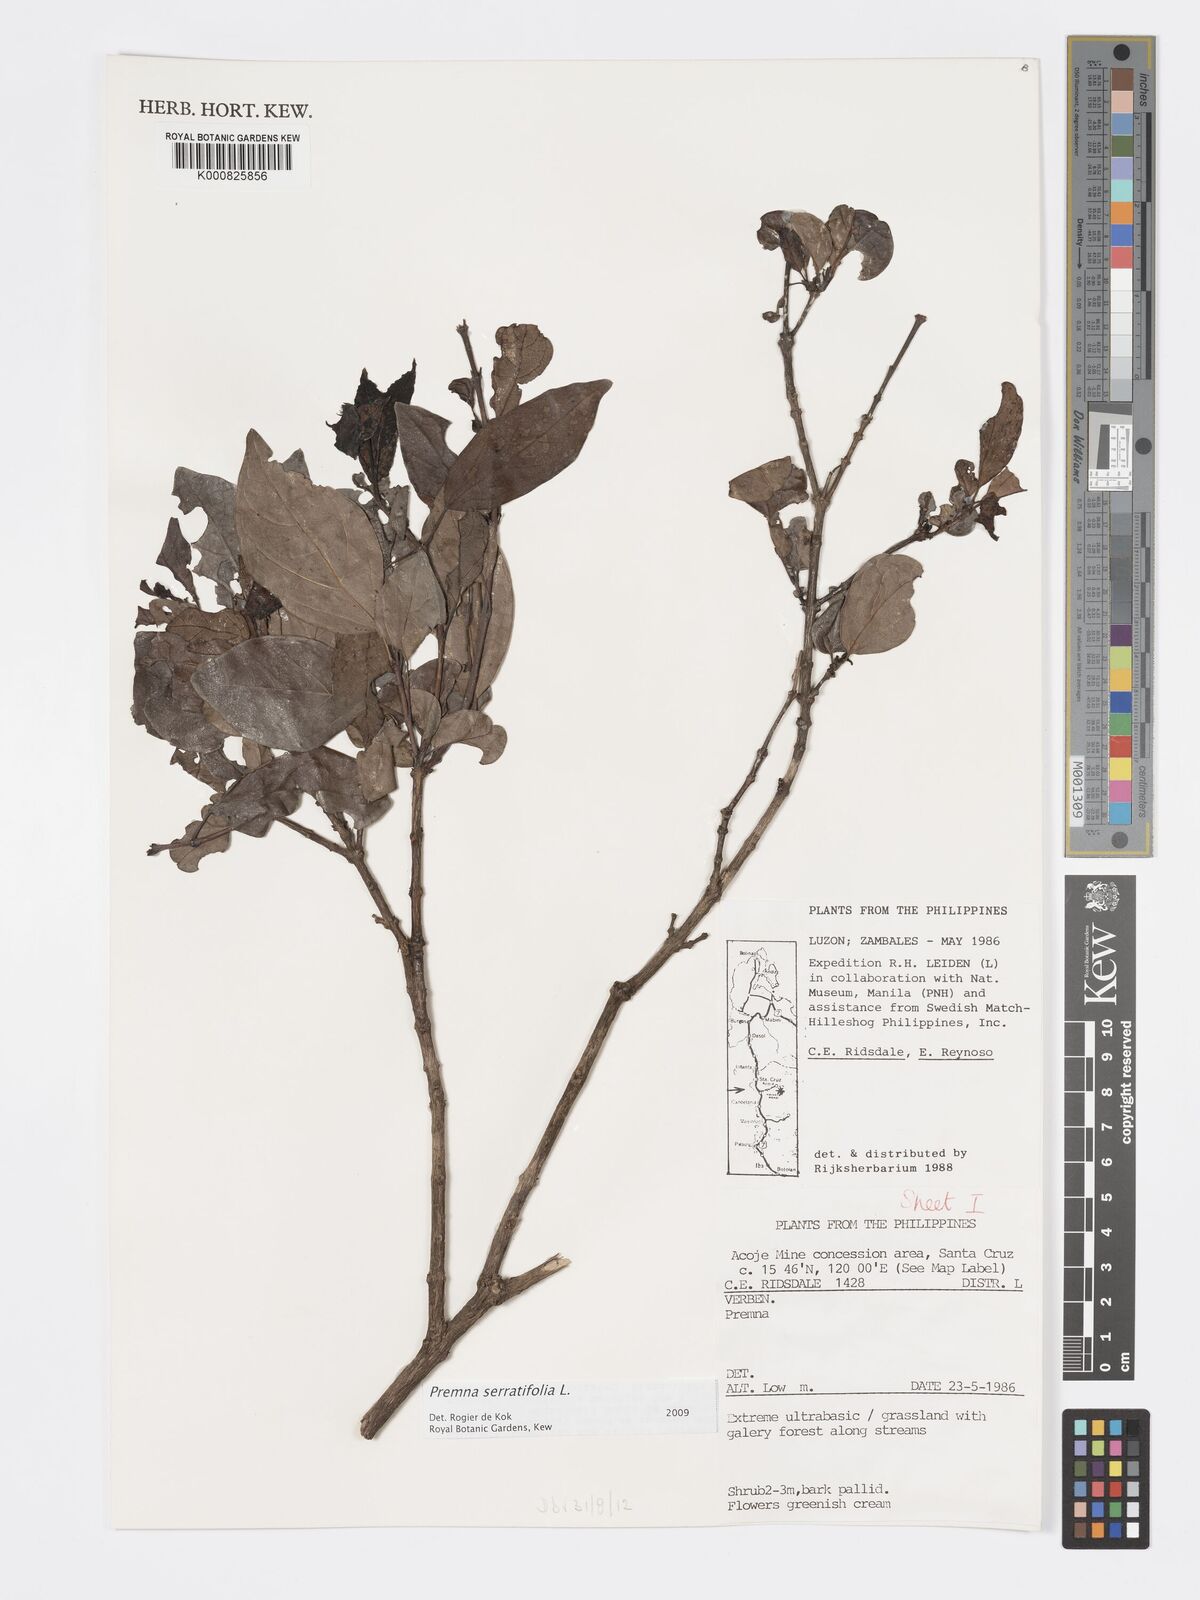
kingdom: Plantae
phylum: Tracheophyta
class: Magnoliopsida
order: Lamiales
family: Lamiaceae
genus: Premna
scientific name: Premna serratifolia
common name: Bastard guelder
